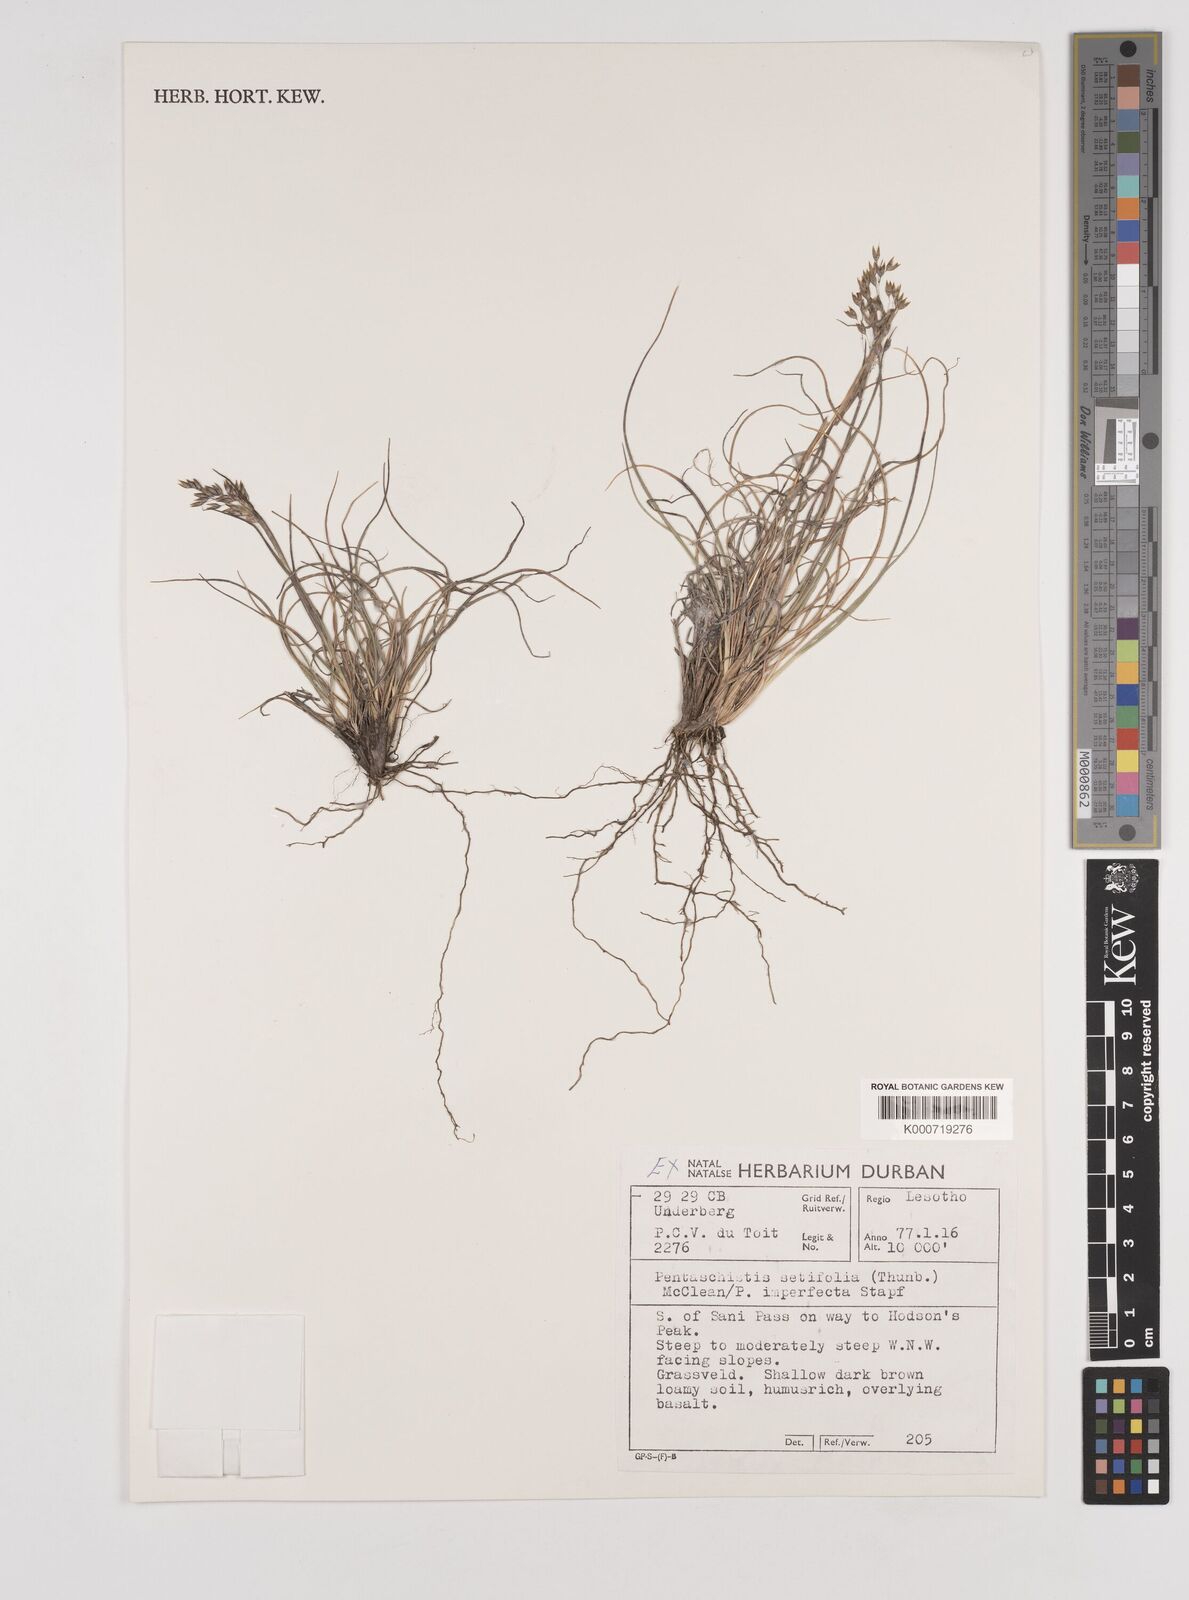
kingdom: Plantae
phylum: Tracheophyta
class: Liliopsida
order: Poales
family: Poaceae
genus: Pentameris
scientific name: Pentameris setifolia
